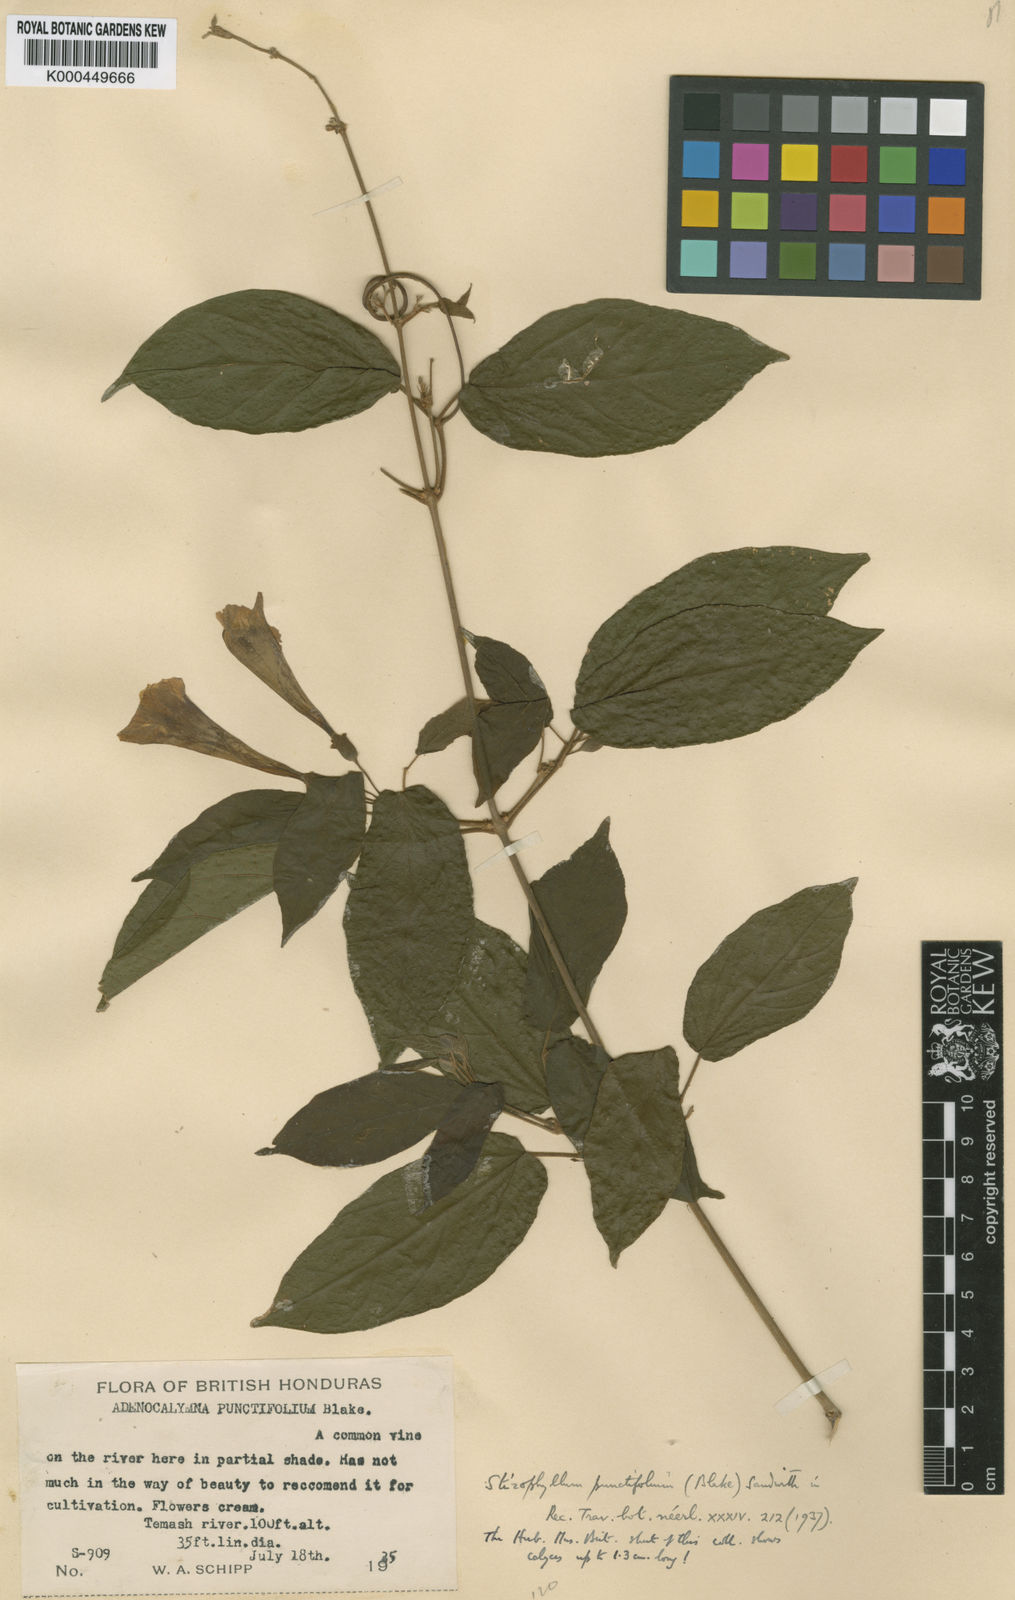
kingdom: Plantae
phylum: Tracheophyta
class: Magnoliopsida
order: Lamiales
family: Bignoniaceae
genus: Stizophyllum
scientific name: Stizophyllum riparium
